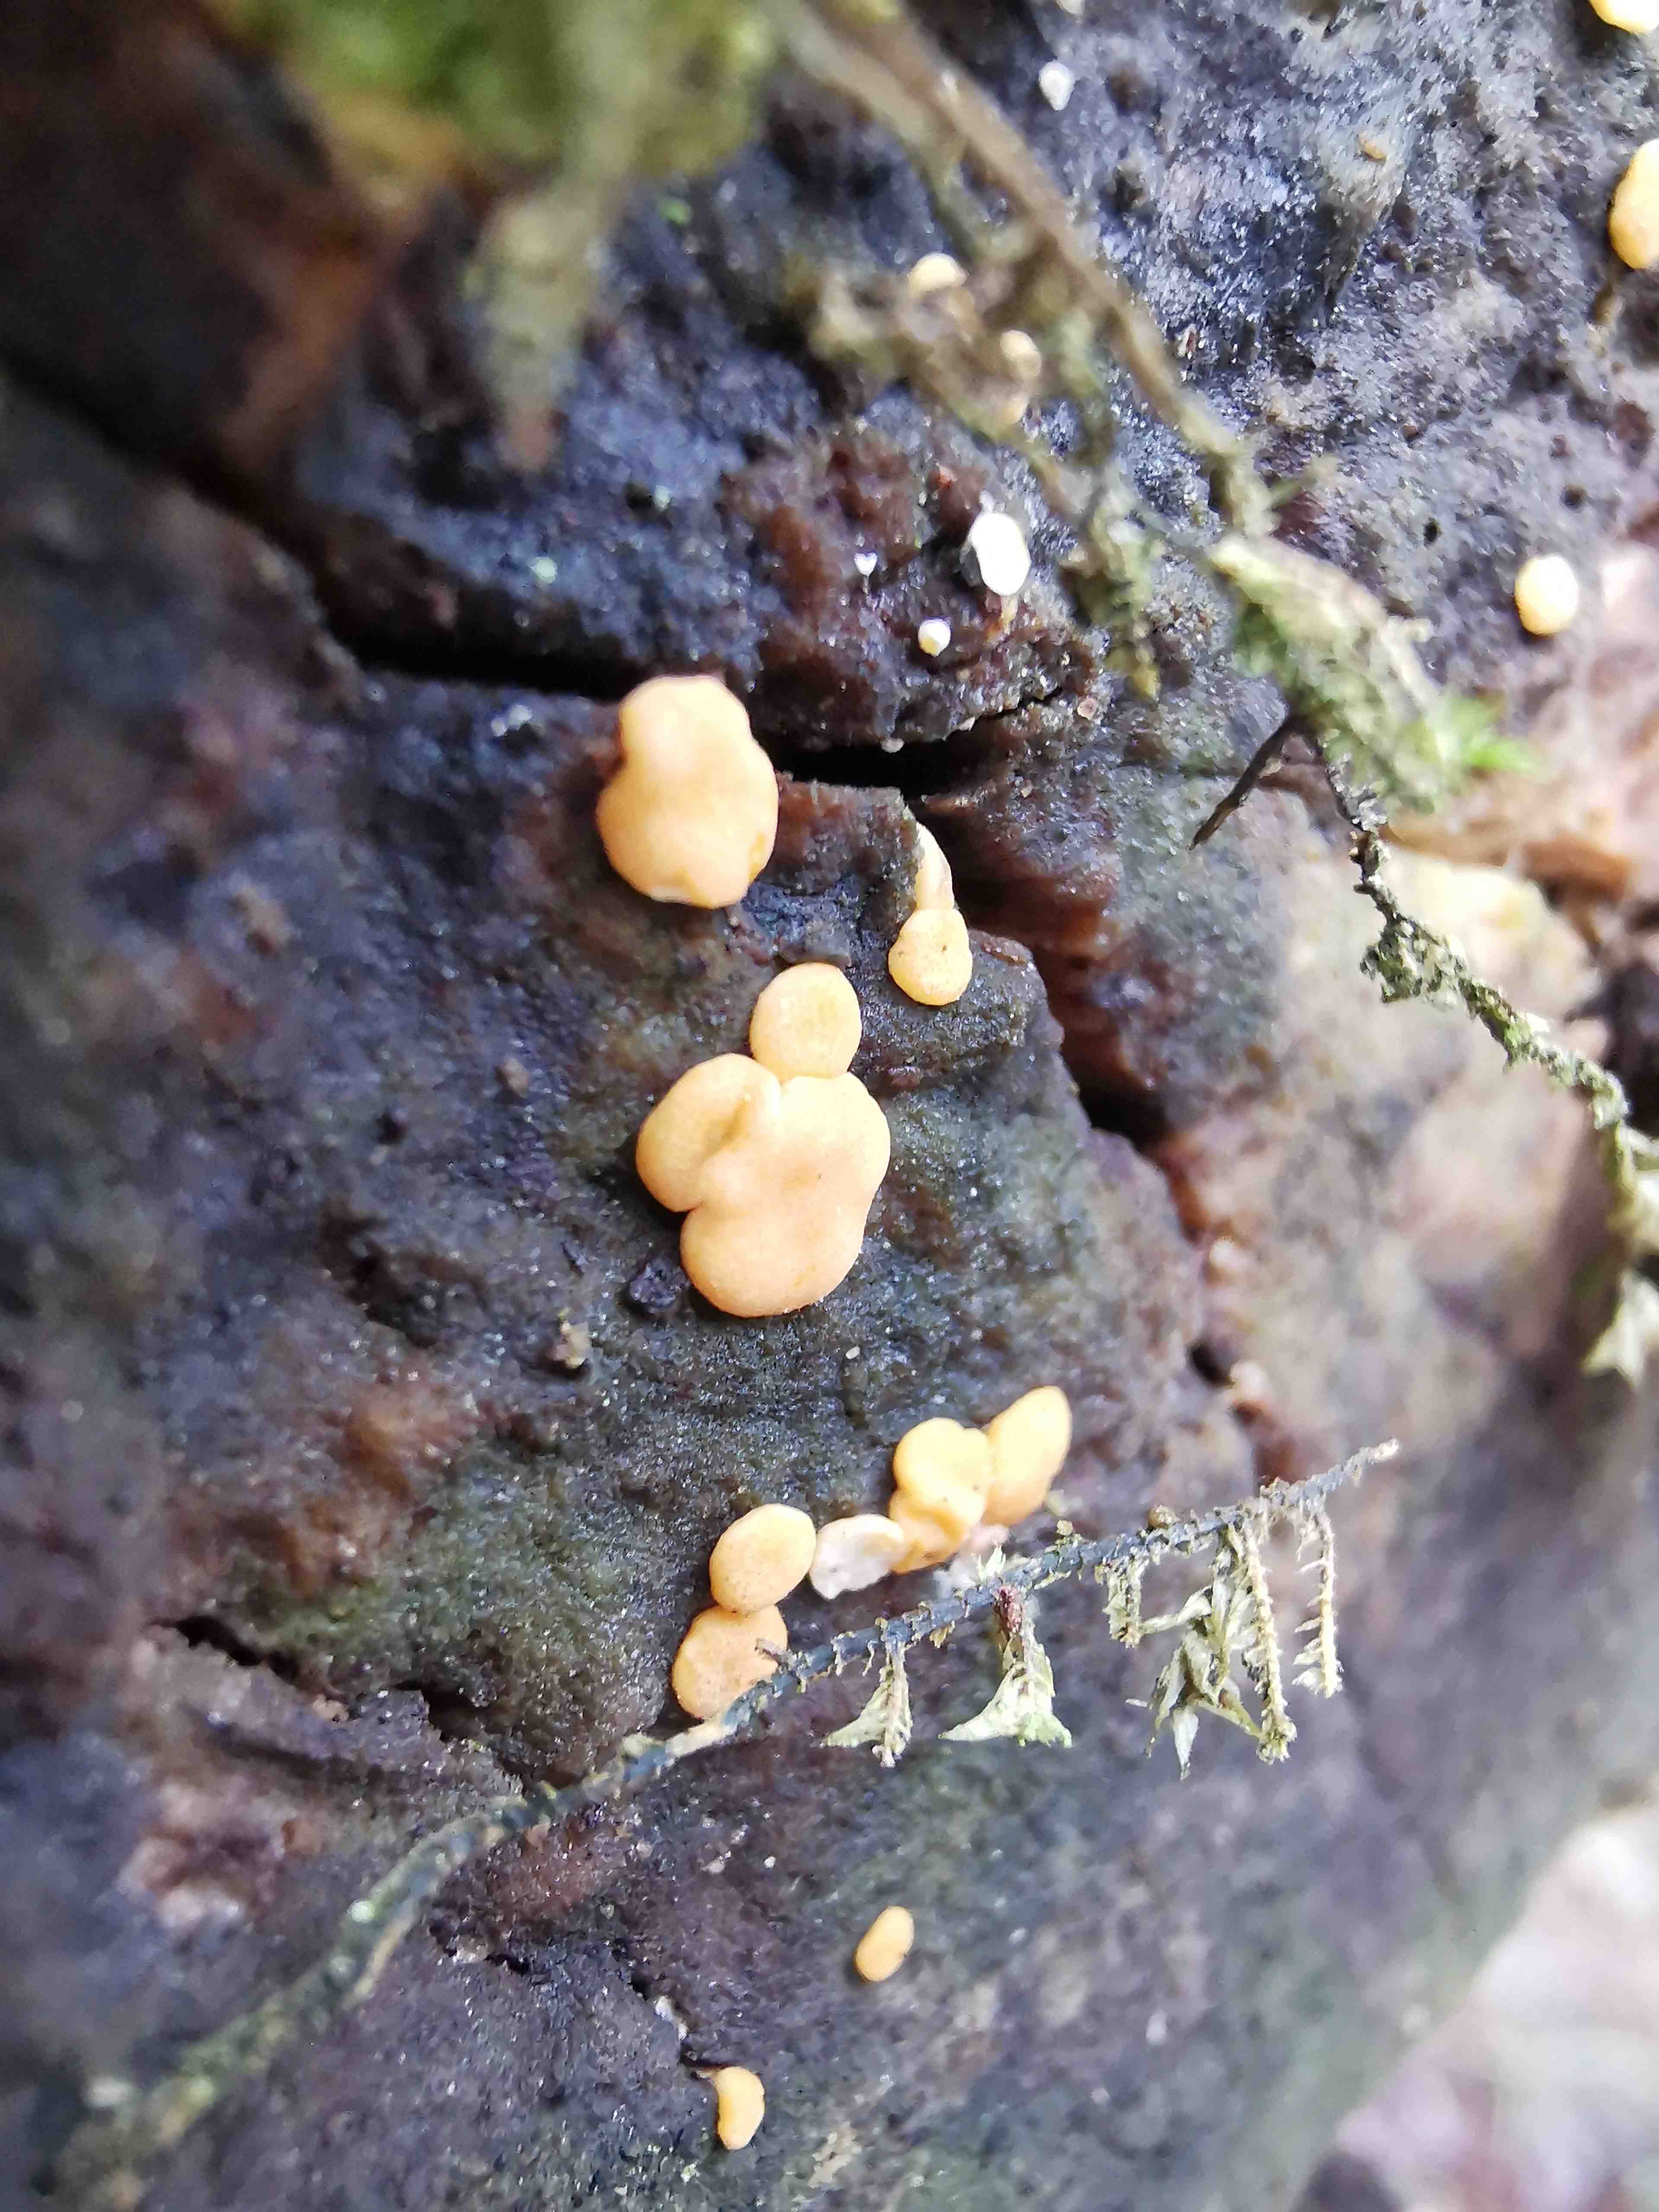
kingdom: Fungi
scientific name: Fungi
